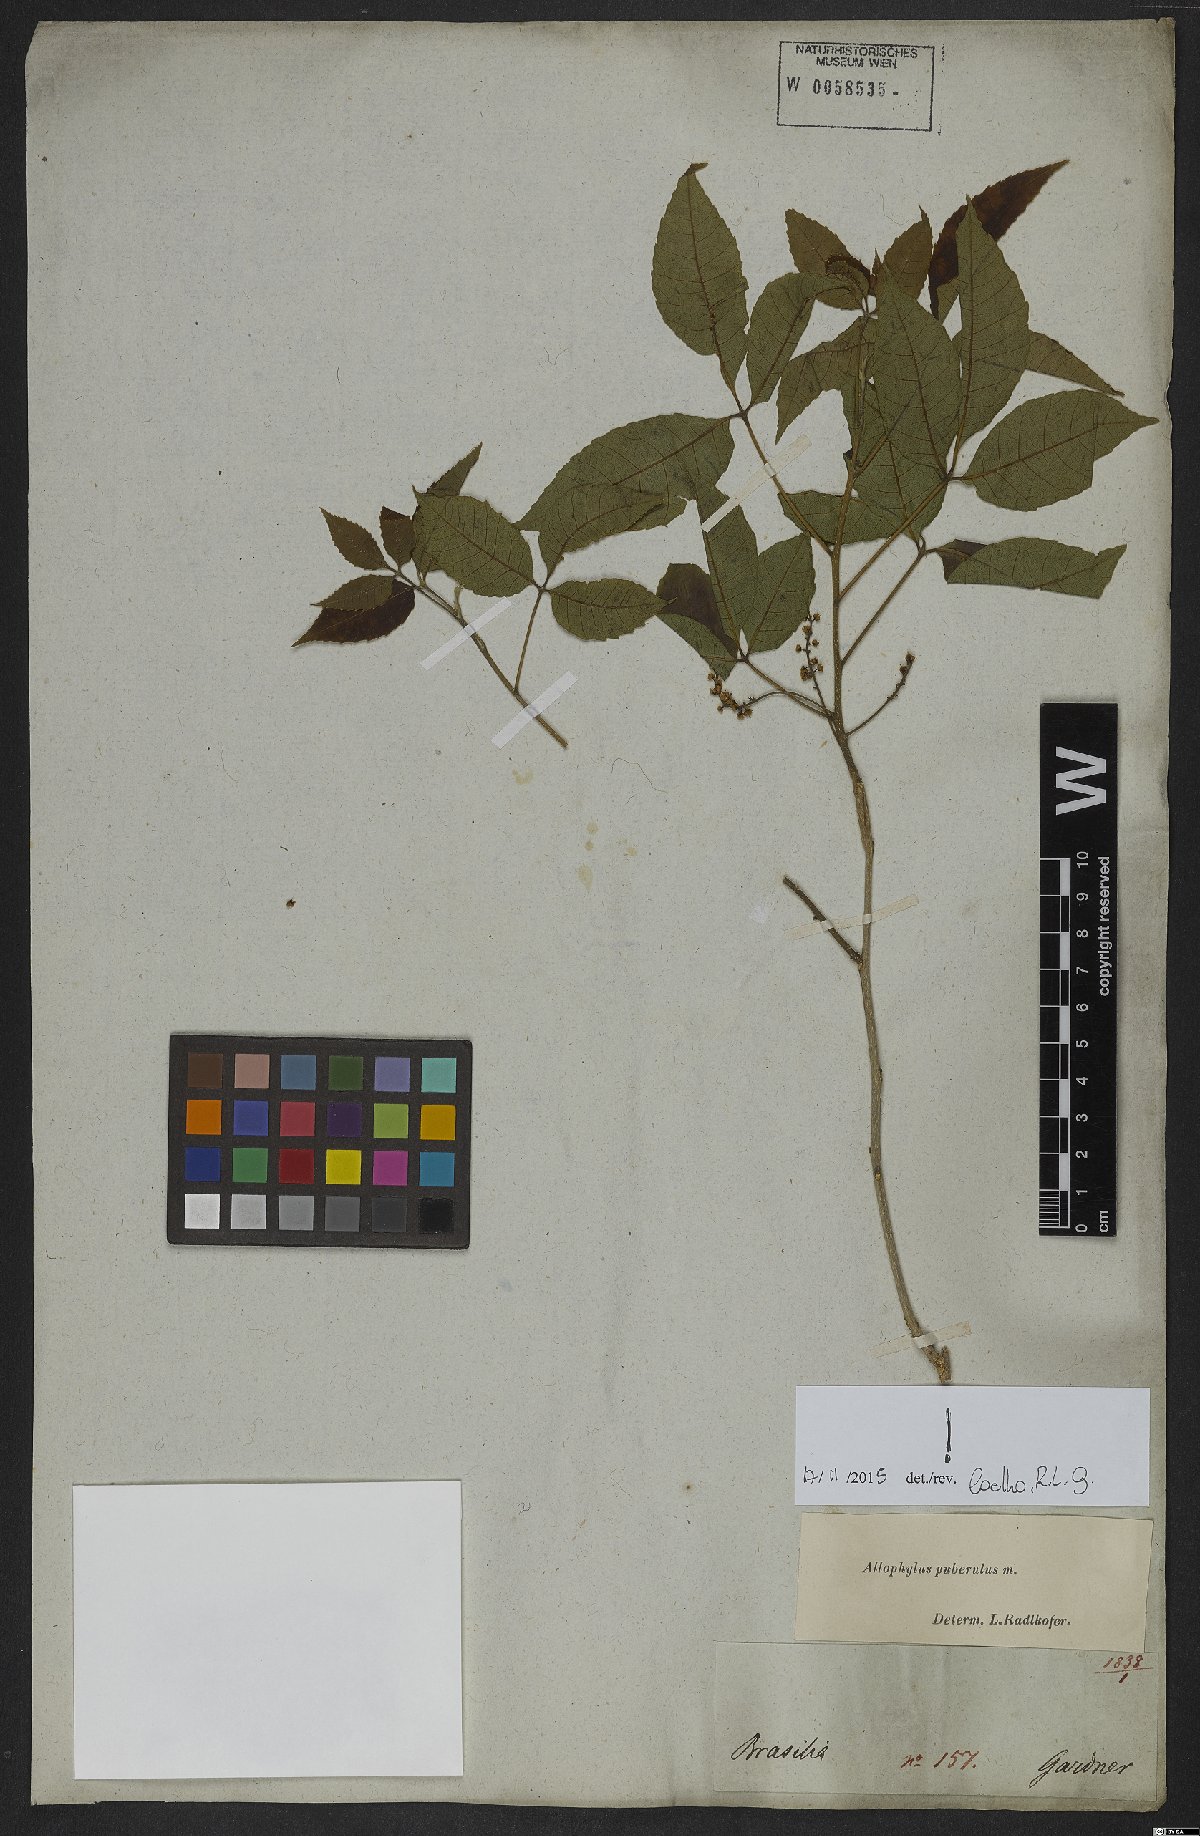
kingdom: Plantae
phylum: Tracheophyta
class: Magnoliopsida
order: Sapindales
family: Sapindaceae
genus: Allophylus
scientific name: Allophylus puberulus
